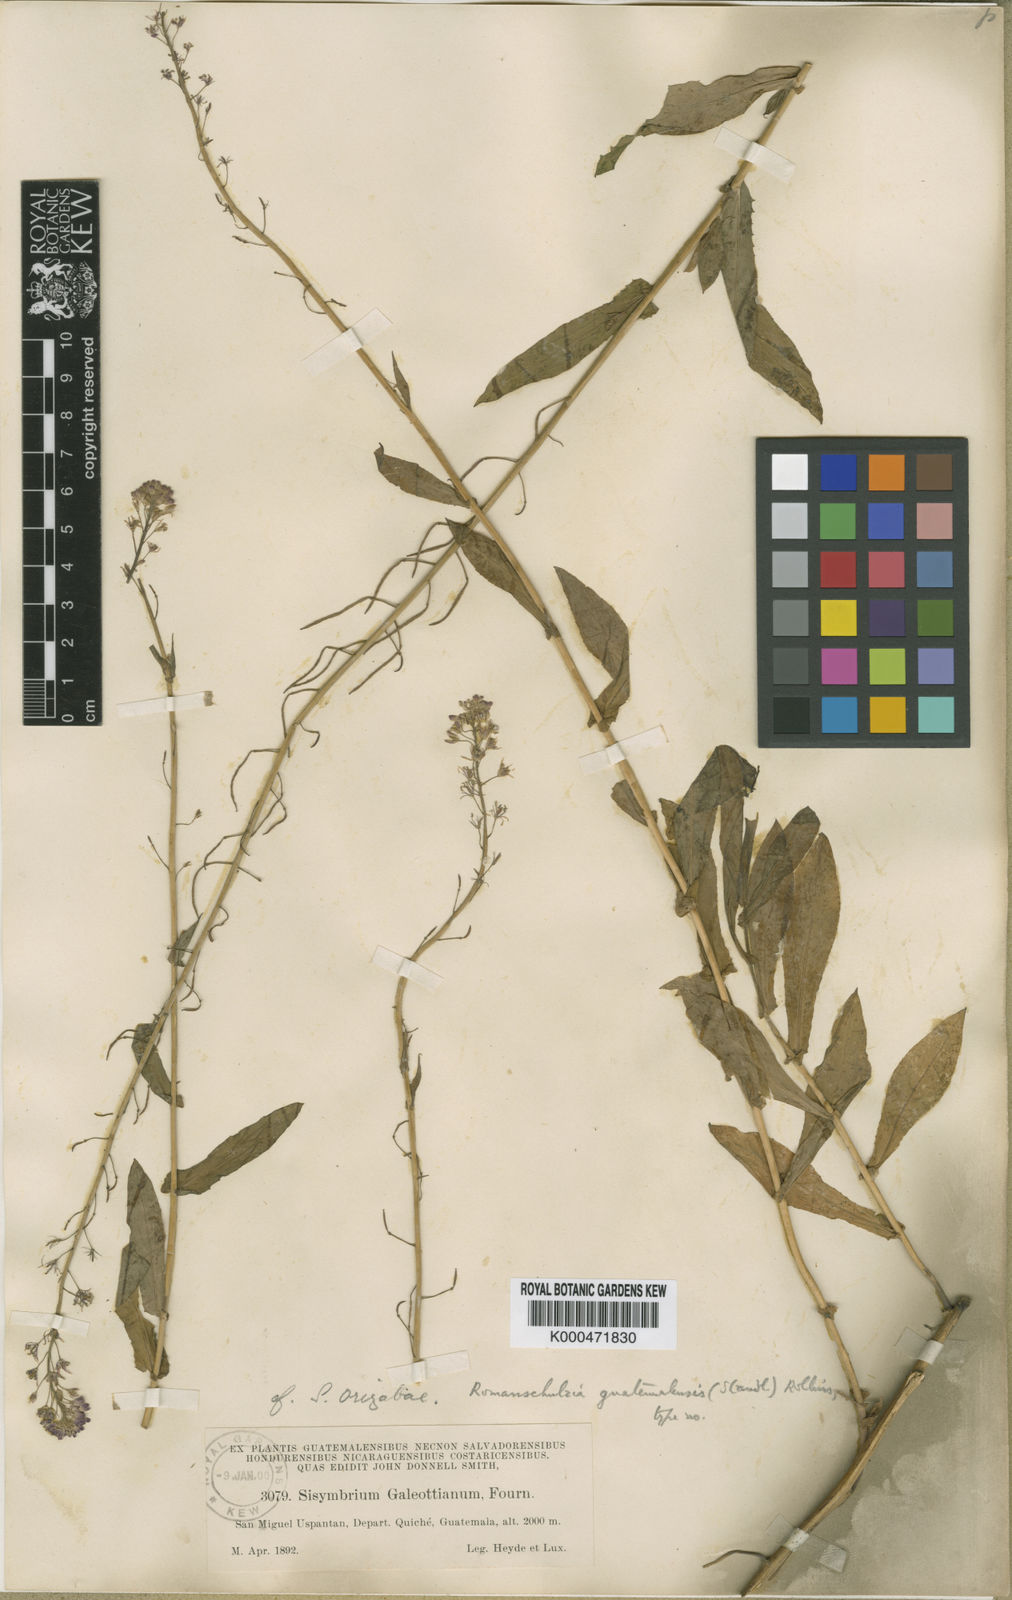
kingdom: Plantae
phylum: Tracheophyta
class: Magnoliopsida
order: Brassicales
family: Brassicaceae
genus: Romanschulzia
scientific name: Romanschulzia guatemalensis
